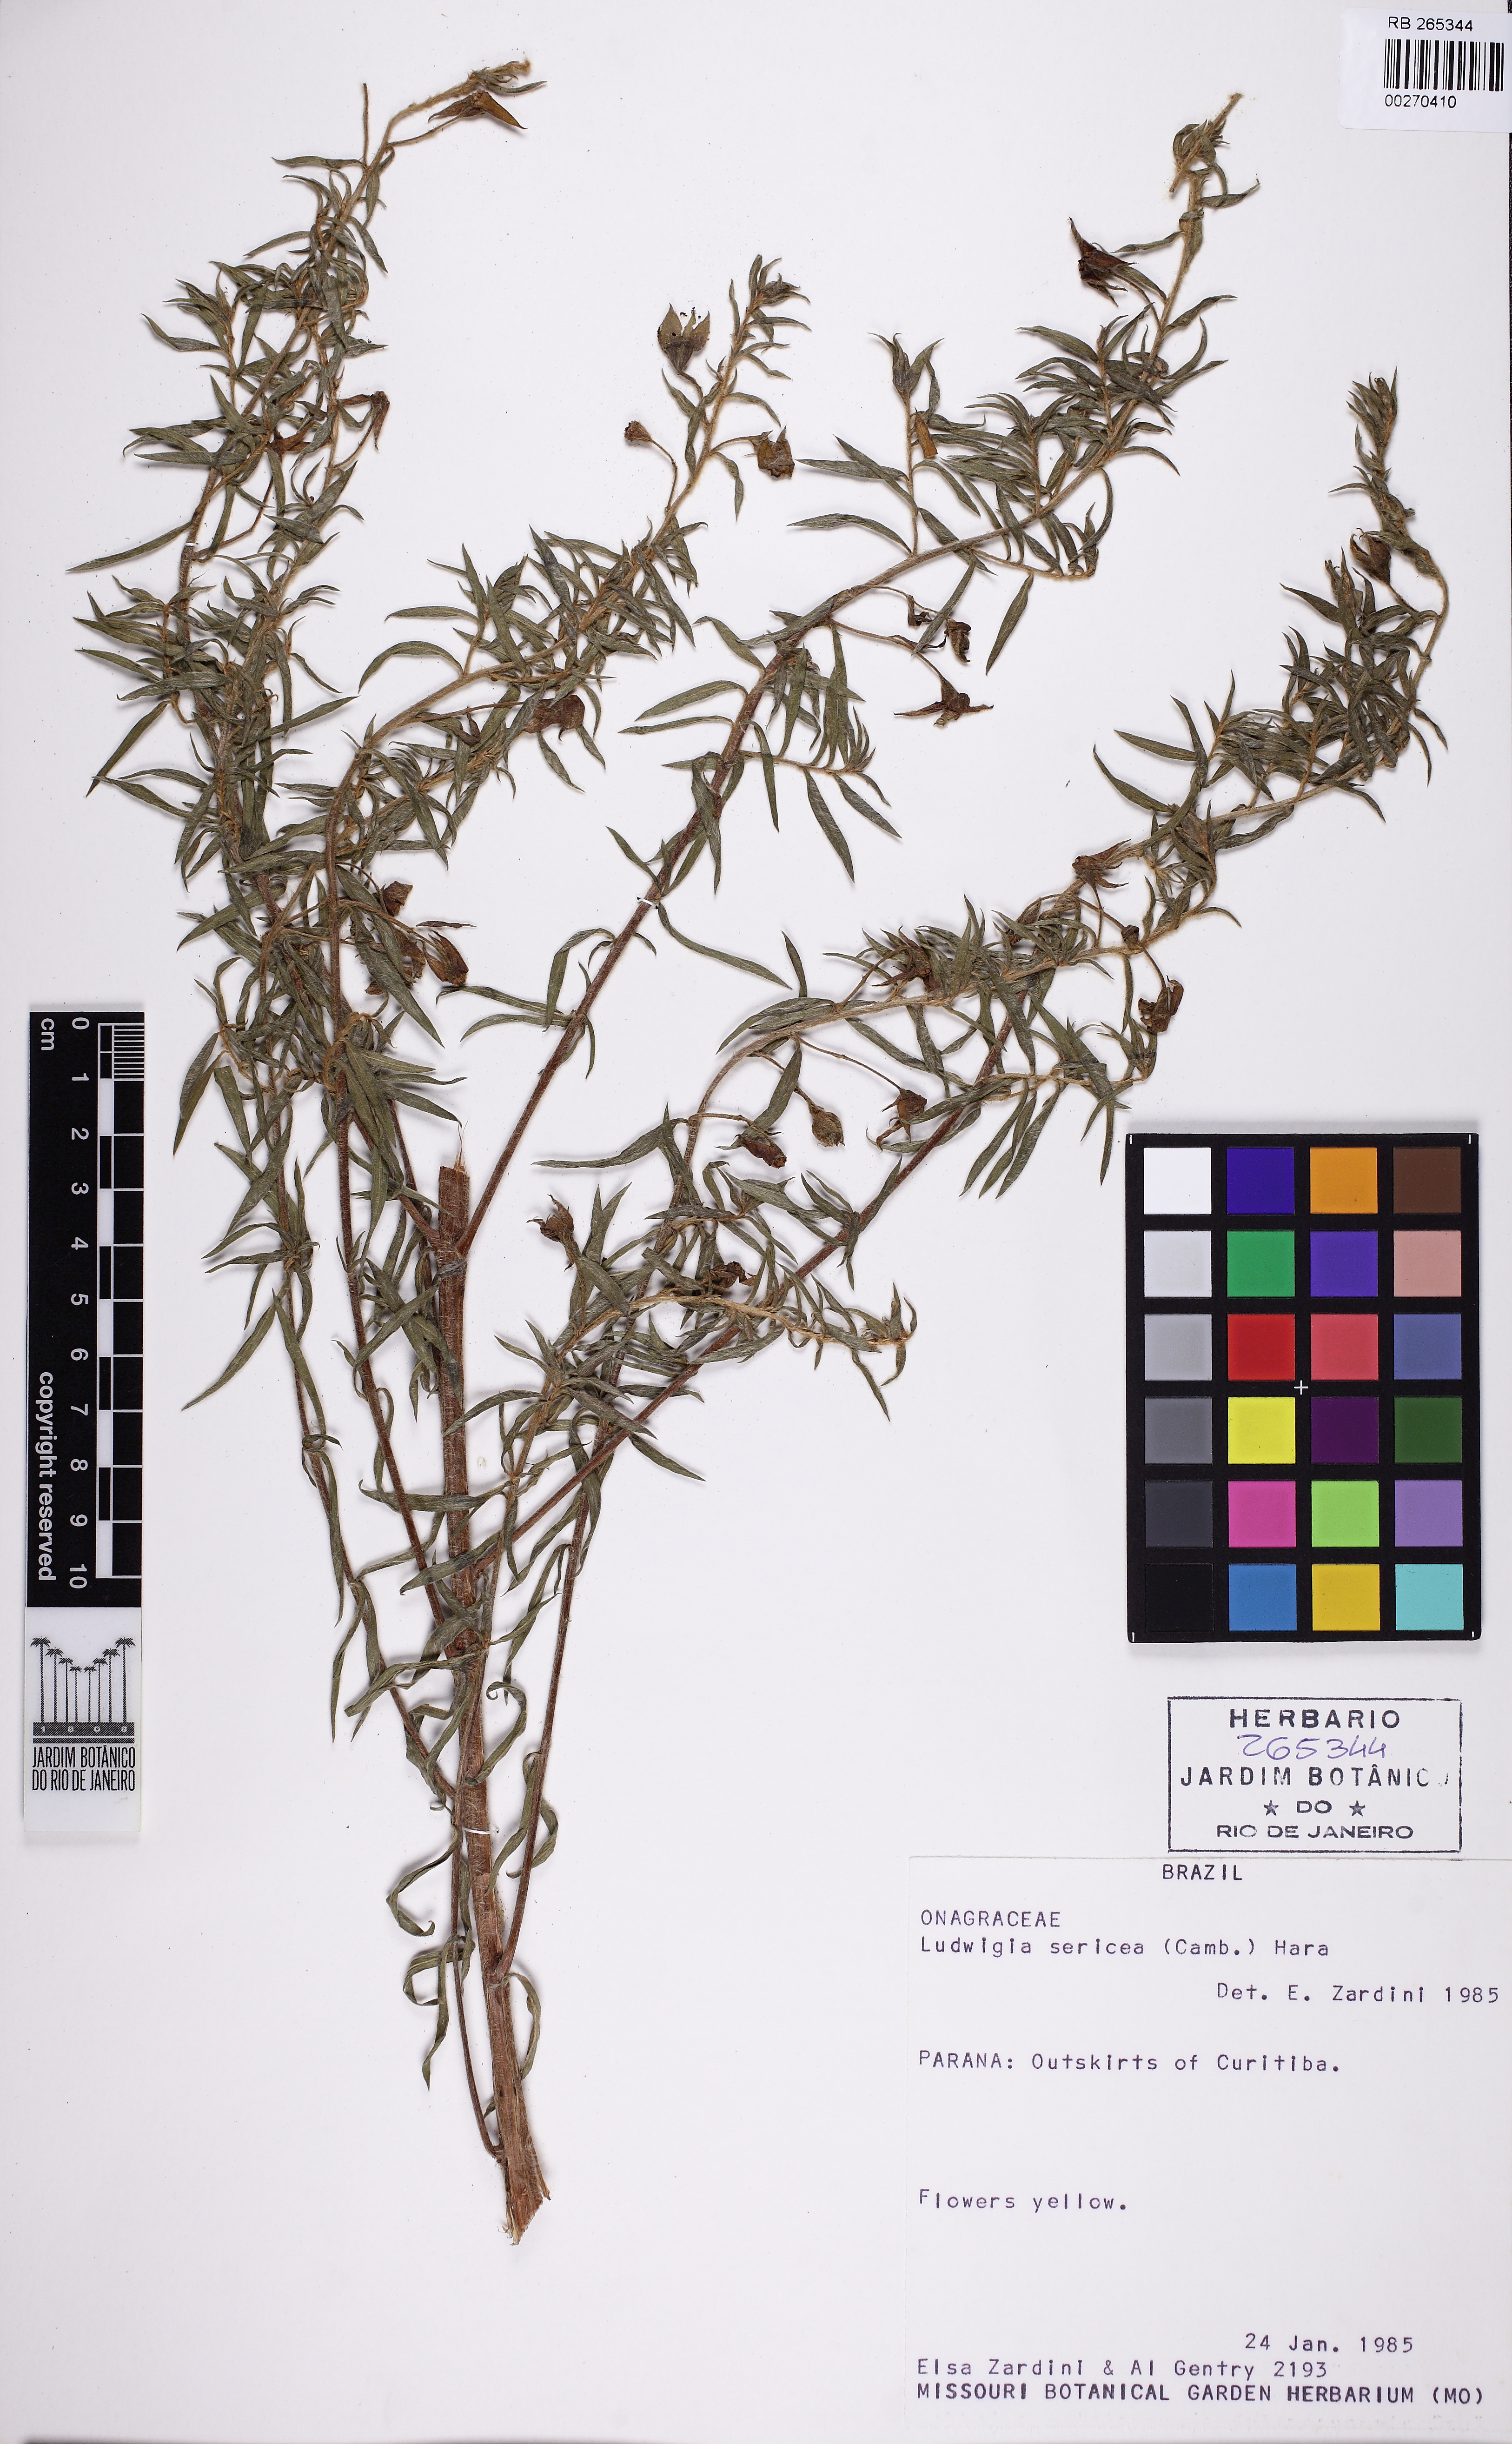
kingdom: Plantae
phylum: Tracheophyta
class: Magnoliopsida
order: Myrtales
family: Onagraceae
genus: Ludwigia
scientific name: Ludwigia sericea
